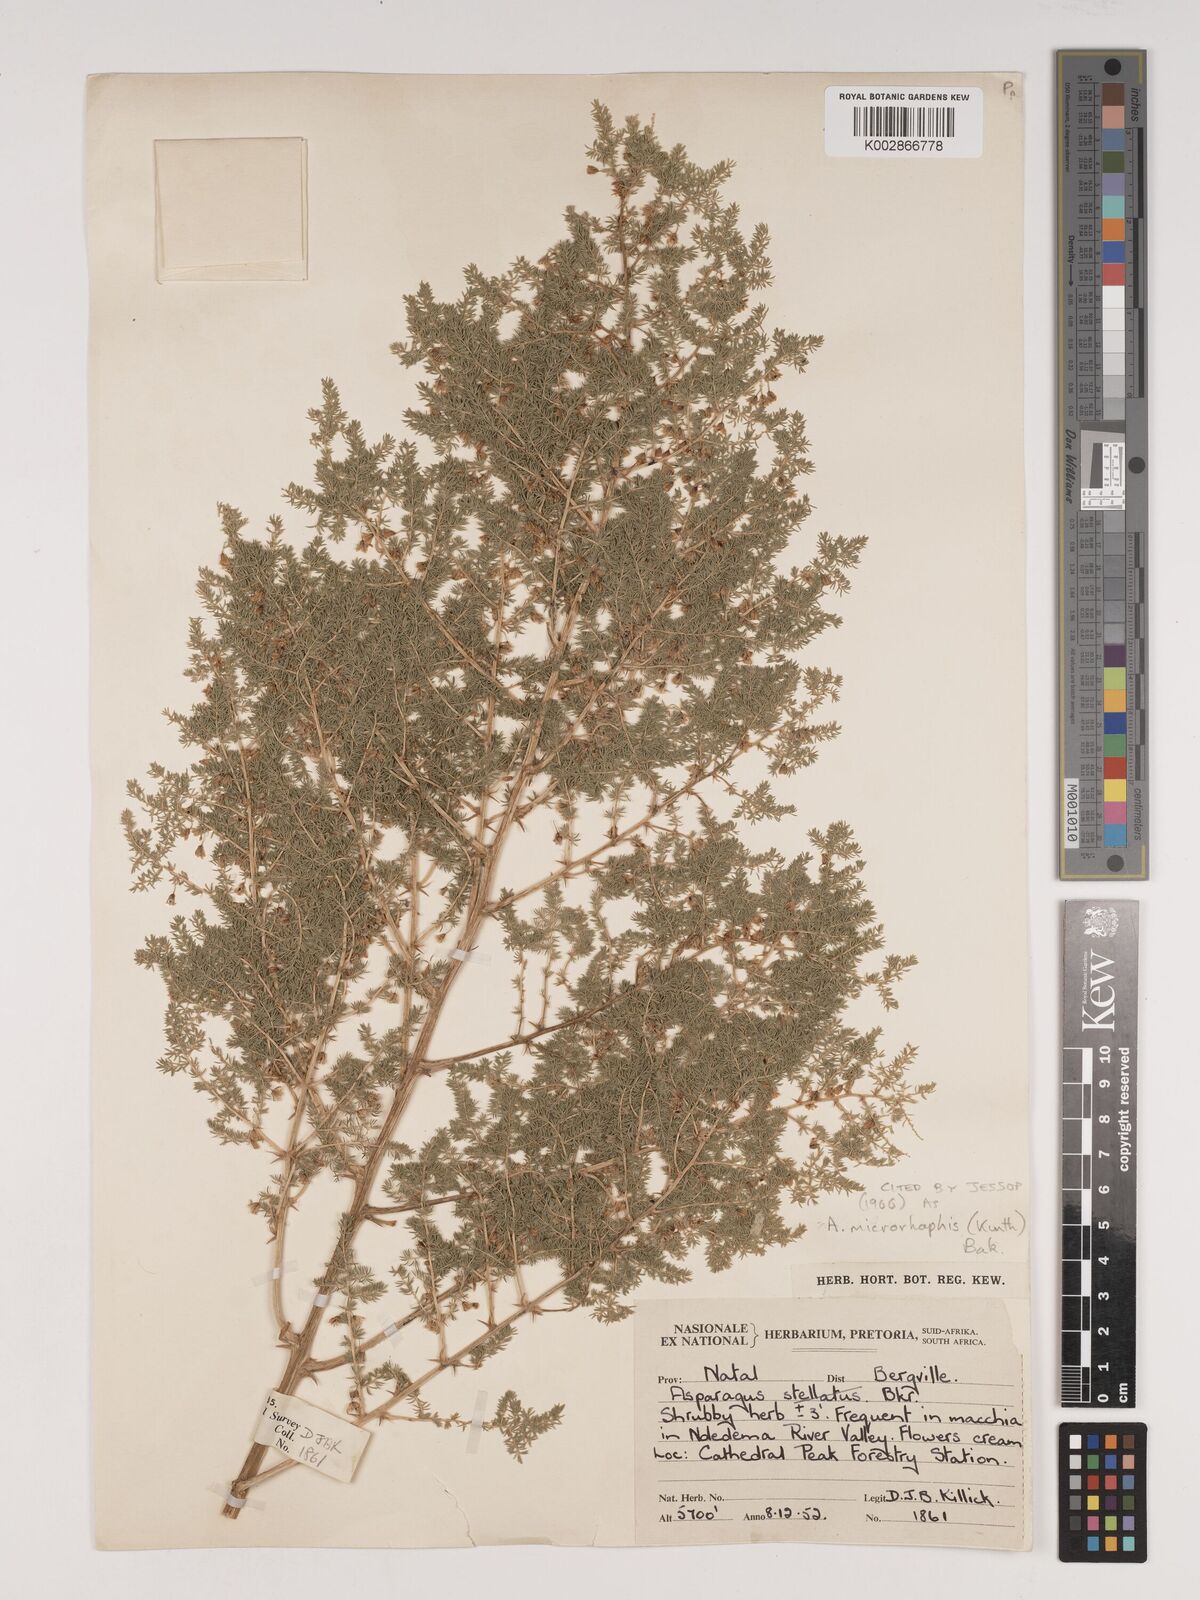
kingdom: Plantae
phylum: Tracheophyta
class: Liliopsida
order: Asparagales
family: Asparagaceae
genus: Asparagus
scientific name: Asparagus microraphis
